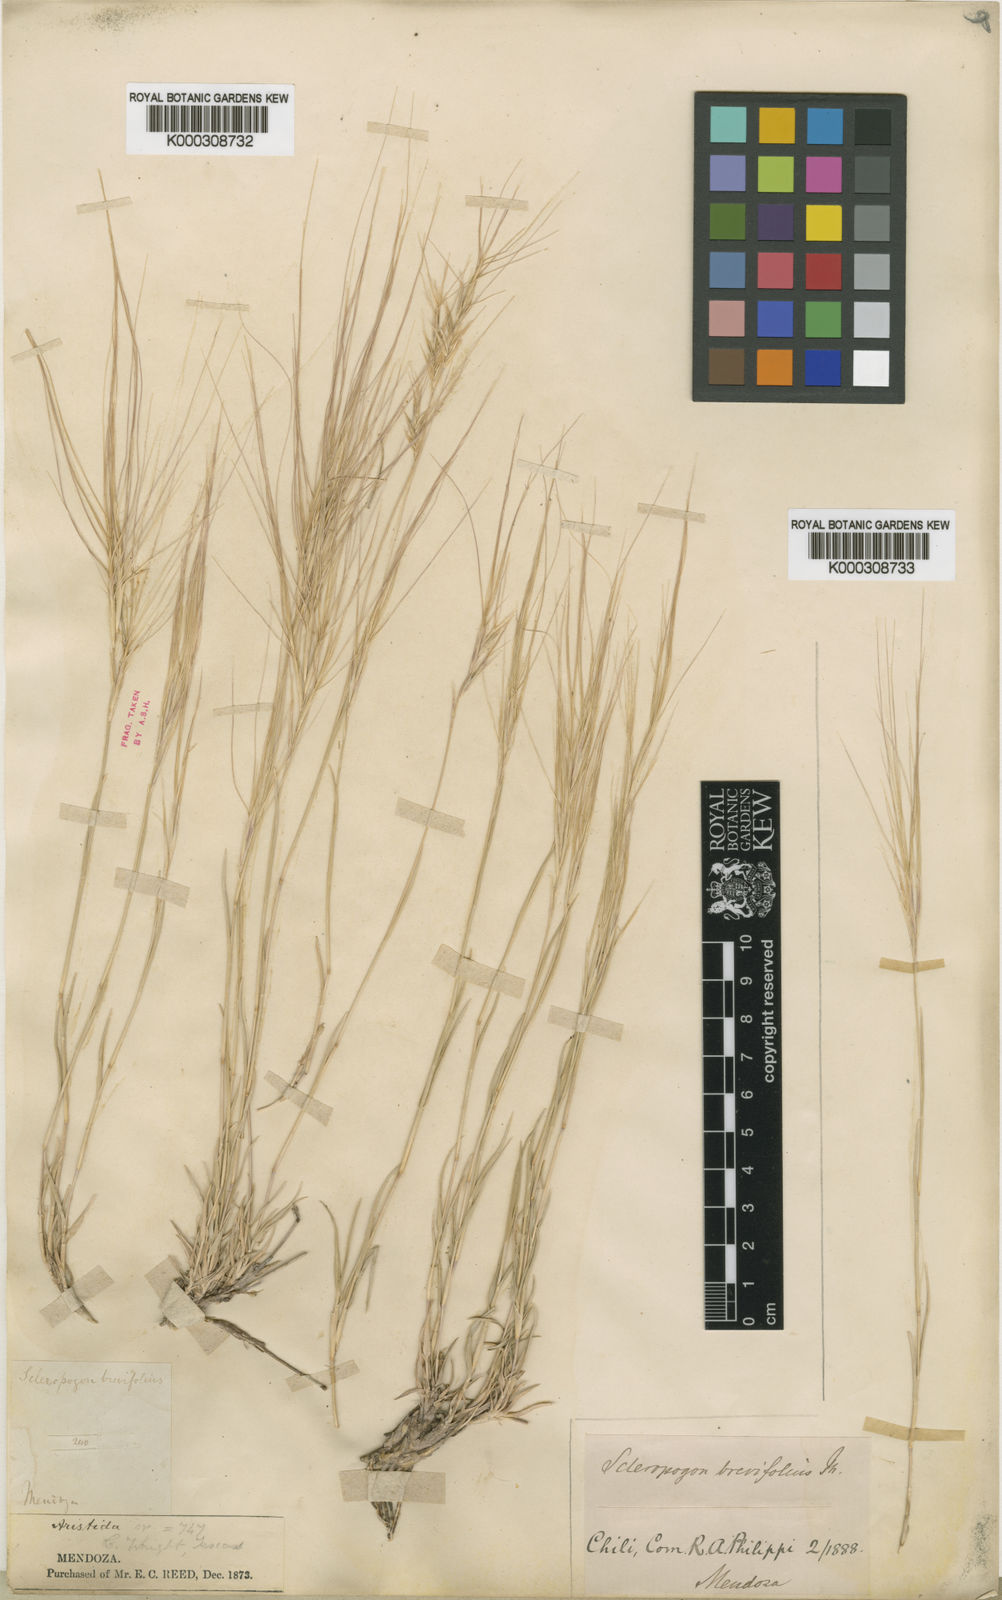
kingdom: Plantae
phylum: Tracheophyta
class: Liliopsida
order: Poales
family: Poaceae
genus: Scleropogon
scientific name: Scleropogon brevifolius
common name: Burro grass
